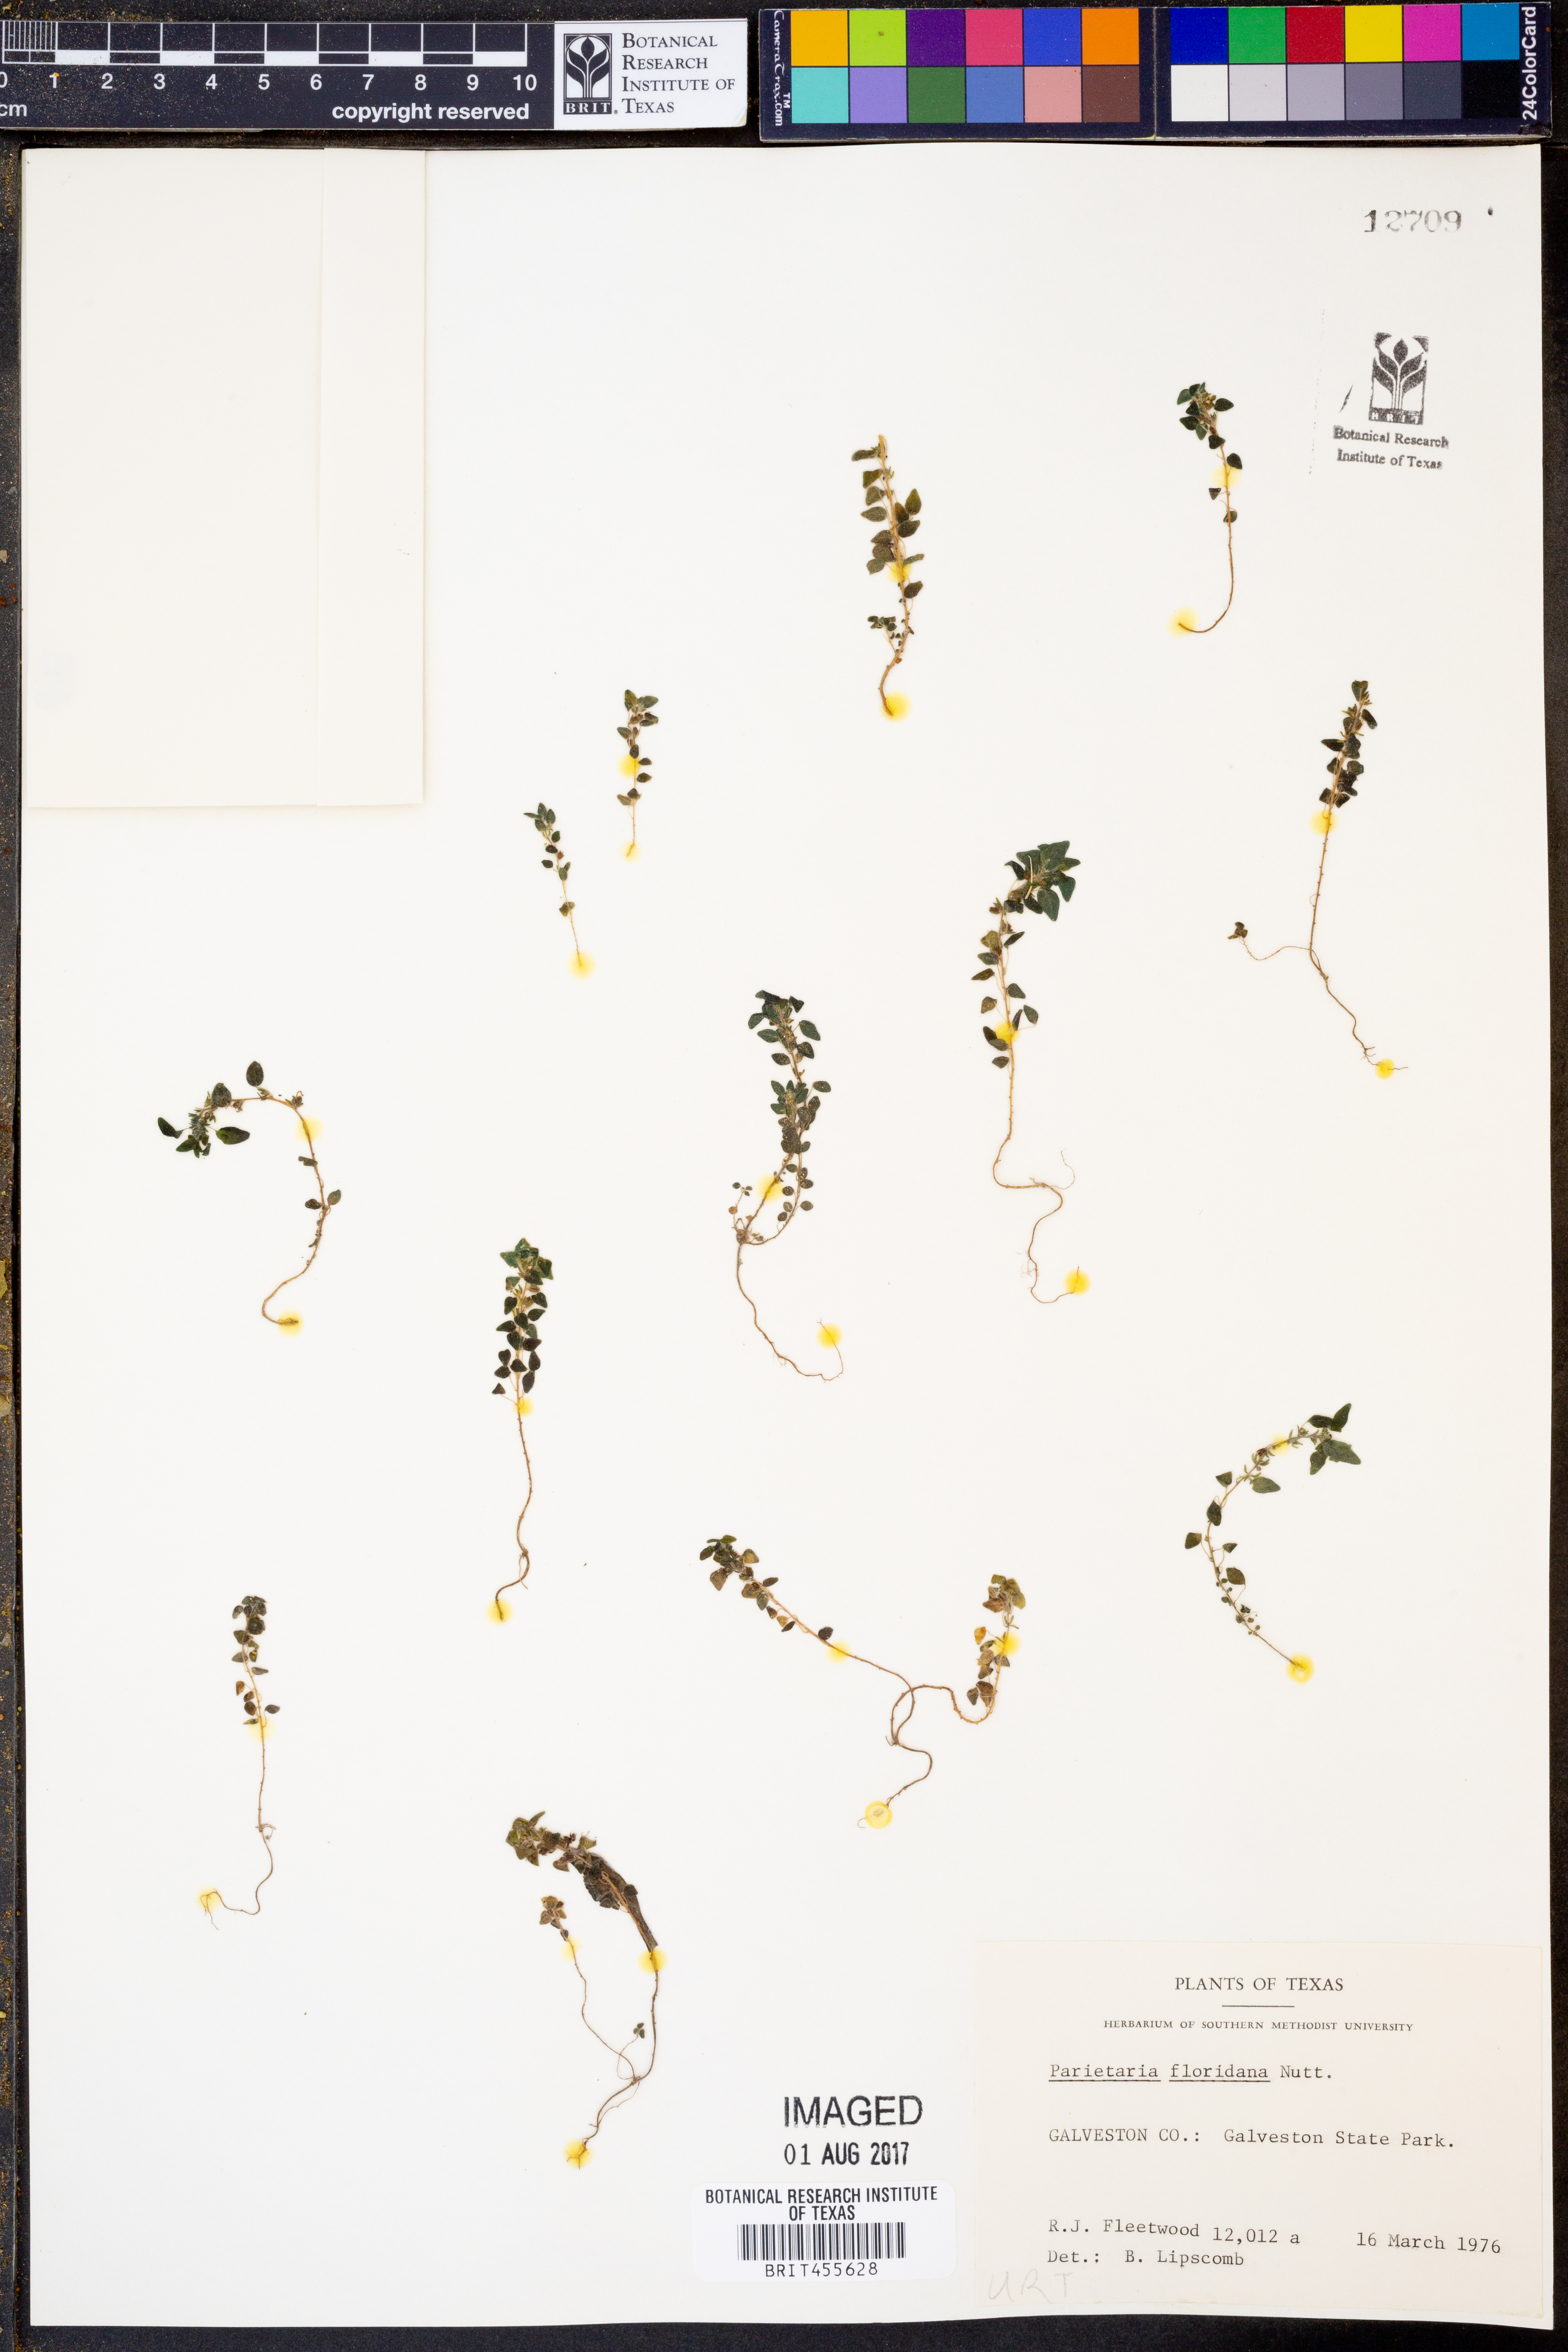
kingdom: Plantae
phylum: Tracheophyta
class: Magnoliopsida
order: Rosales
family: Urticaceae
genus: Parietaria
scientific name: Parietaria floridana
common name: Florida pellitory
